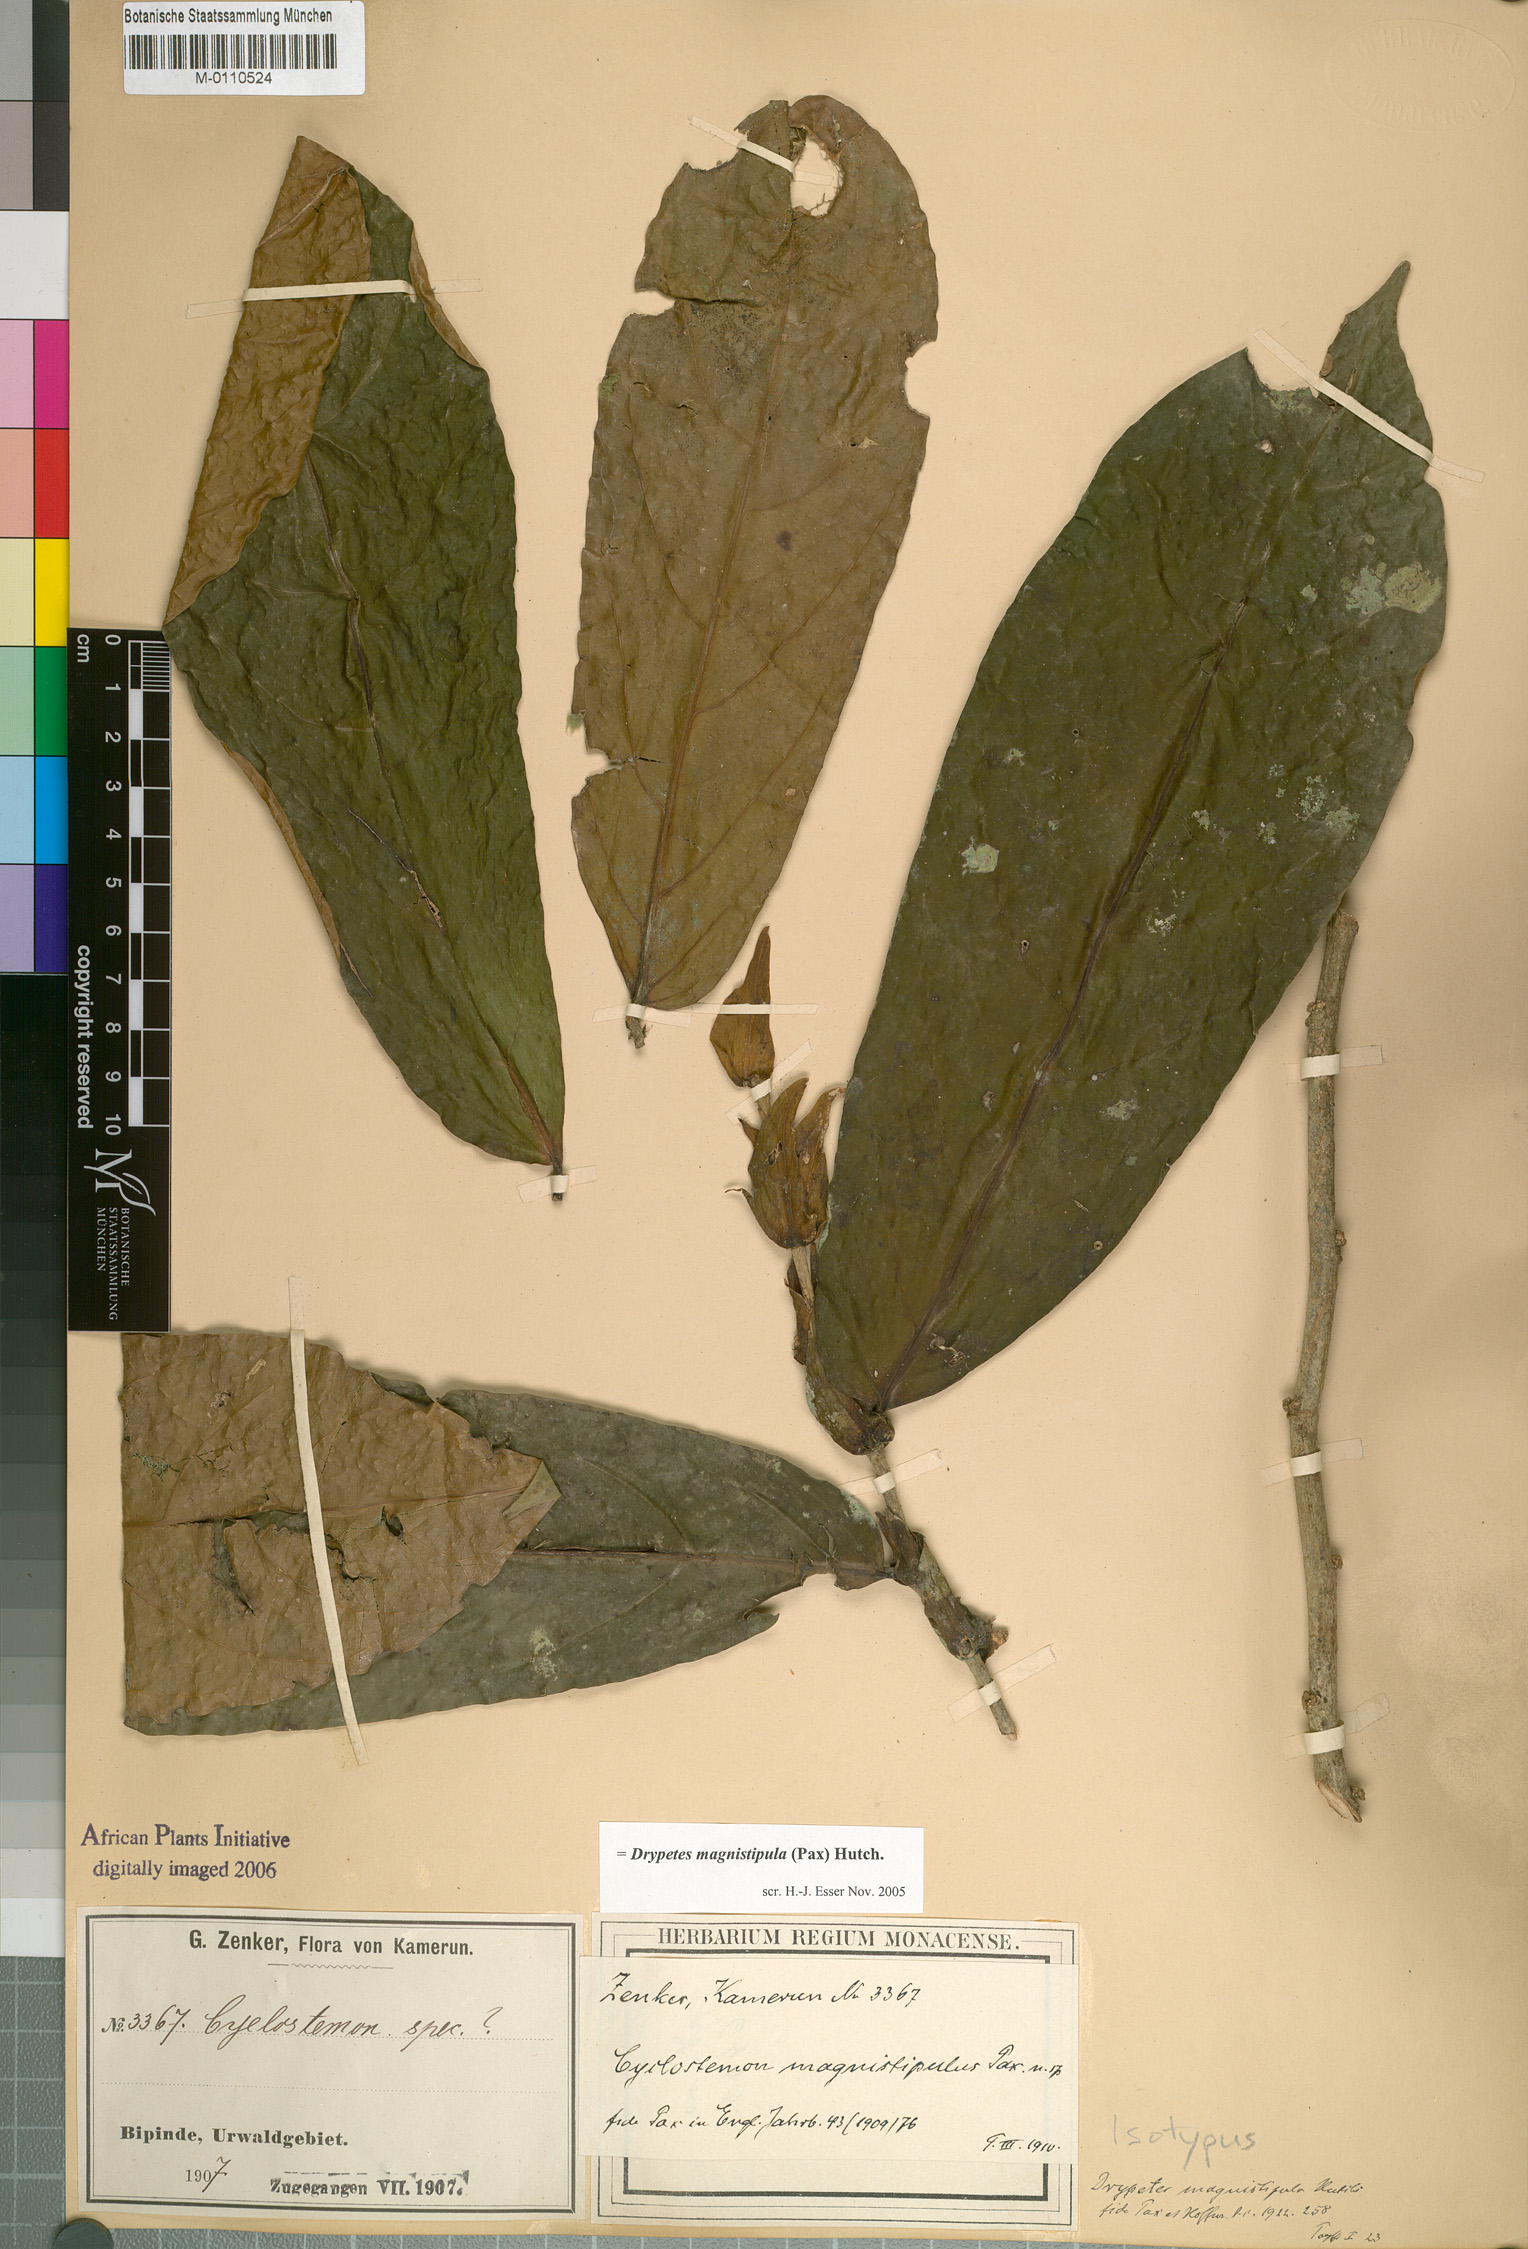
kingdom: Plantae
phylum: Tracheophyta
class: Magnoliopsida
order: Malpighiales
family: Putranjivaceae
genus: Drypetes
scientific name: Drypetes magnistipula
